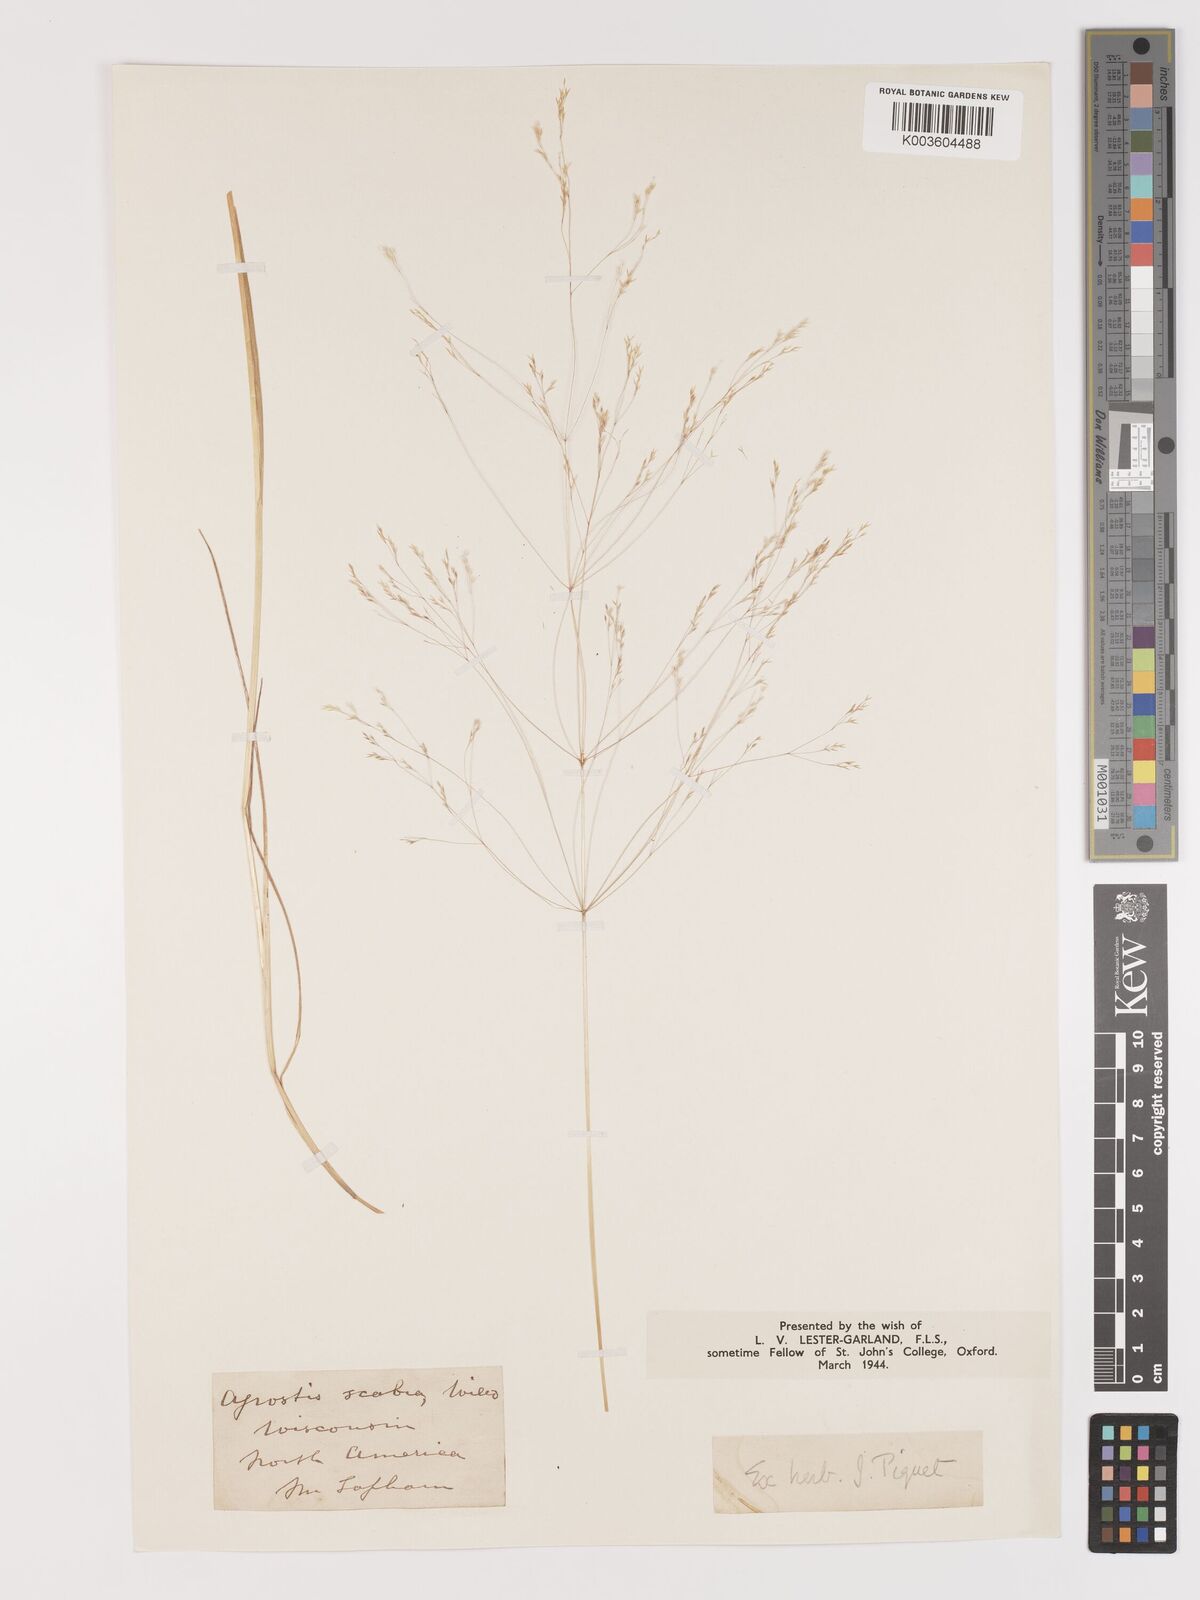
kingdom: Plantae
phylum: Tracheophyta
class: Liliopsida
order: Poales
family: Poaceae
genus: Agrostis
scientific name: Agrostis hyemalis
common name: Small bent
